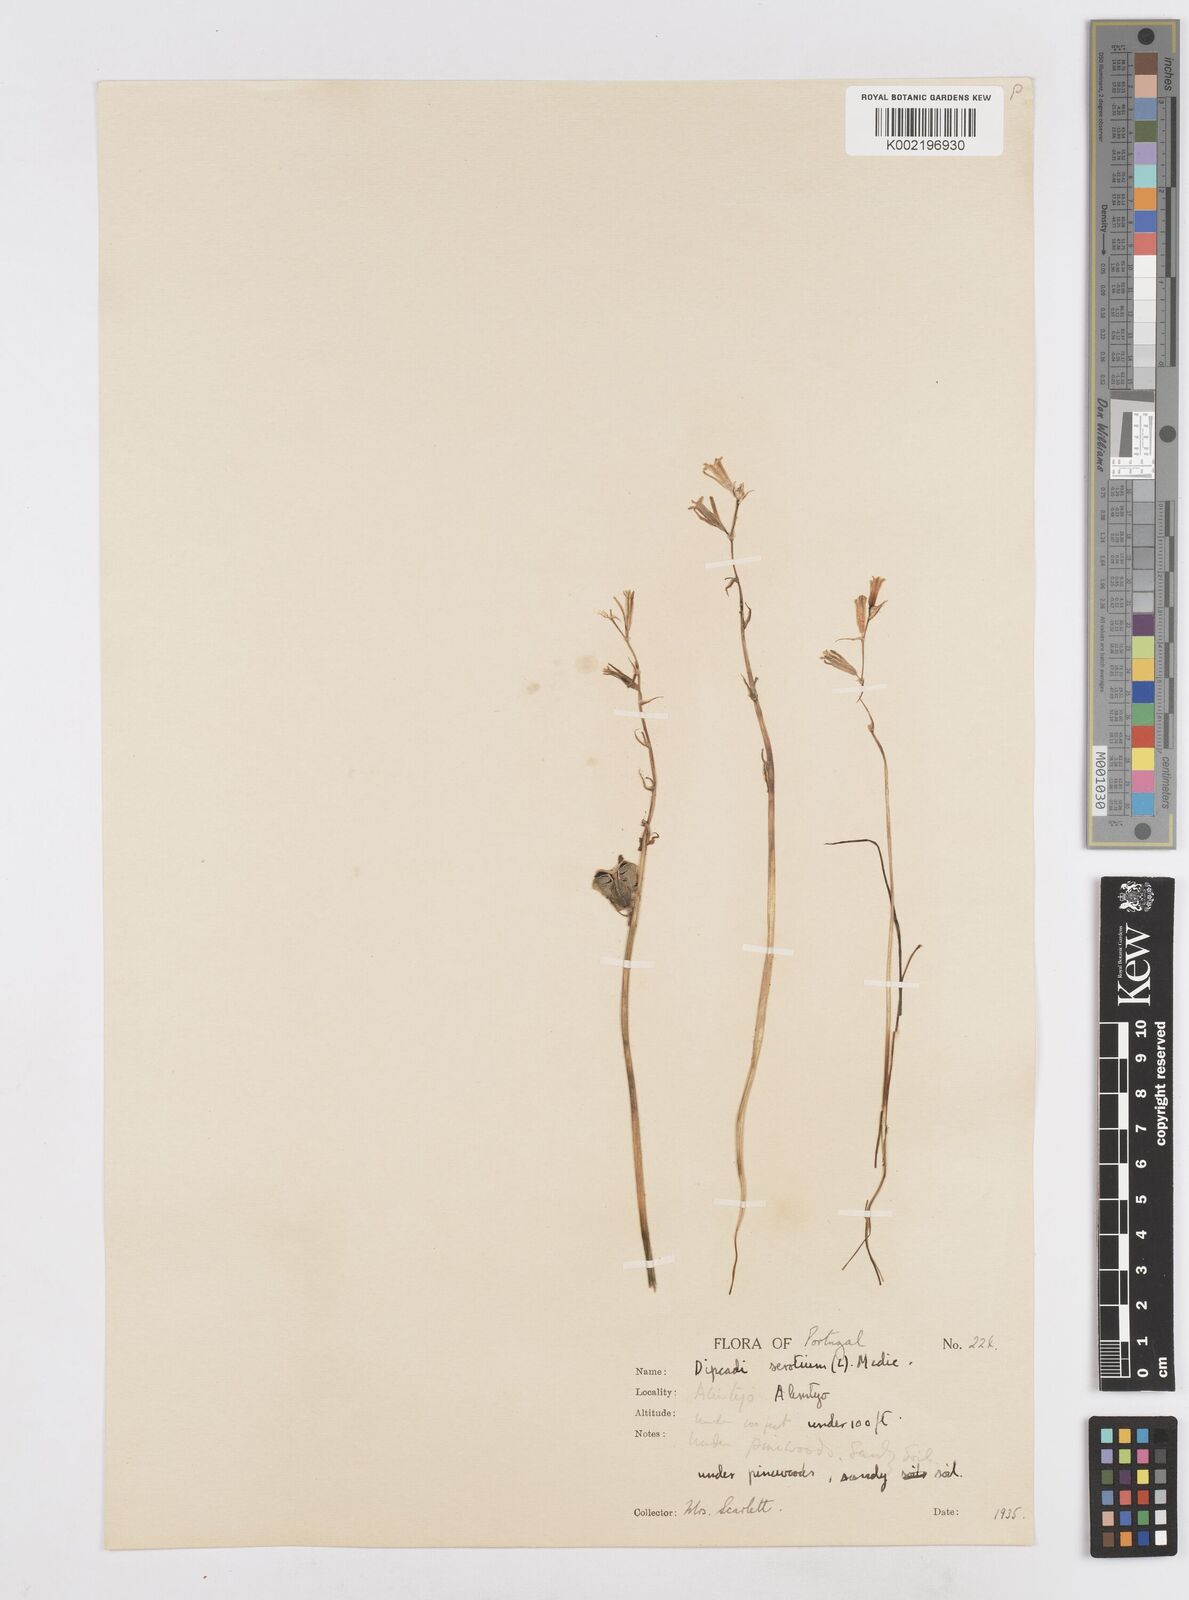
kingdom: Plantae
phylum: Tracheophyta
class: Liliopsida
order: Asparagales
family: Asparagaceae
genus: Dipcadi
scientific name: Dipcadi serotinum
